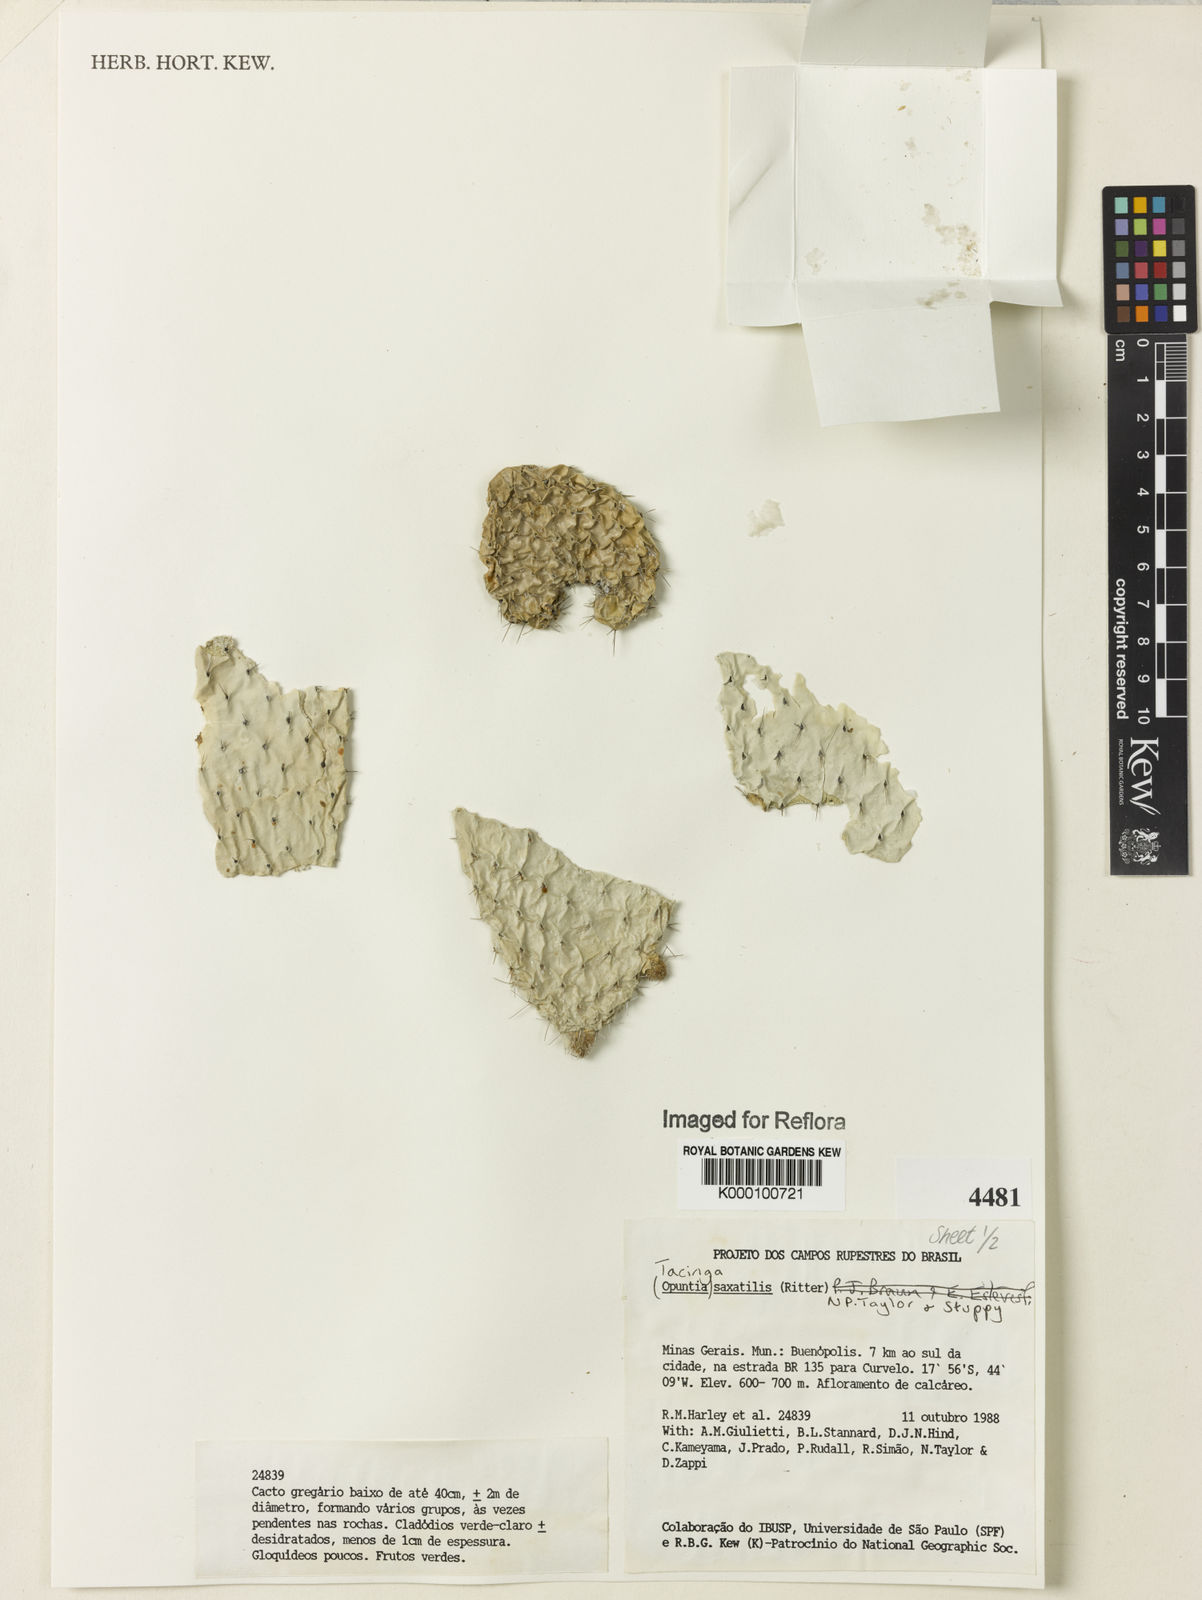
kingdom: Plantae
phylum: Tracheophyta
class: Magnoliopsida
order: Caryophyllales
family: Cactaceae
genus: Tacinga
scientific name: Tacinga saxatilis
